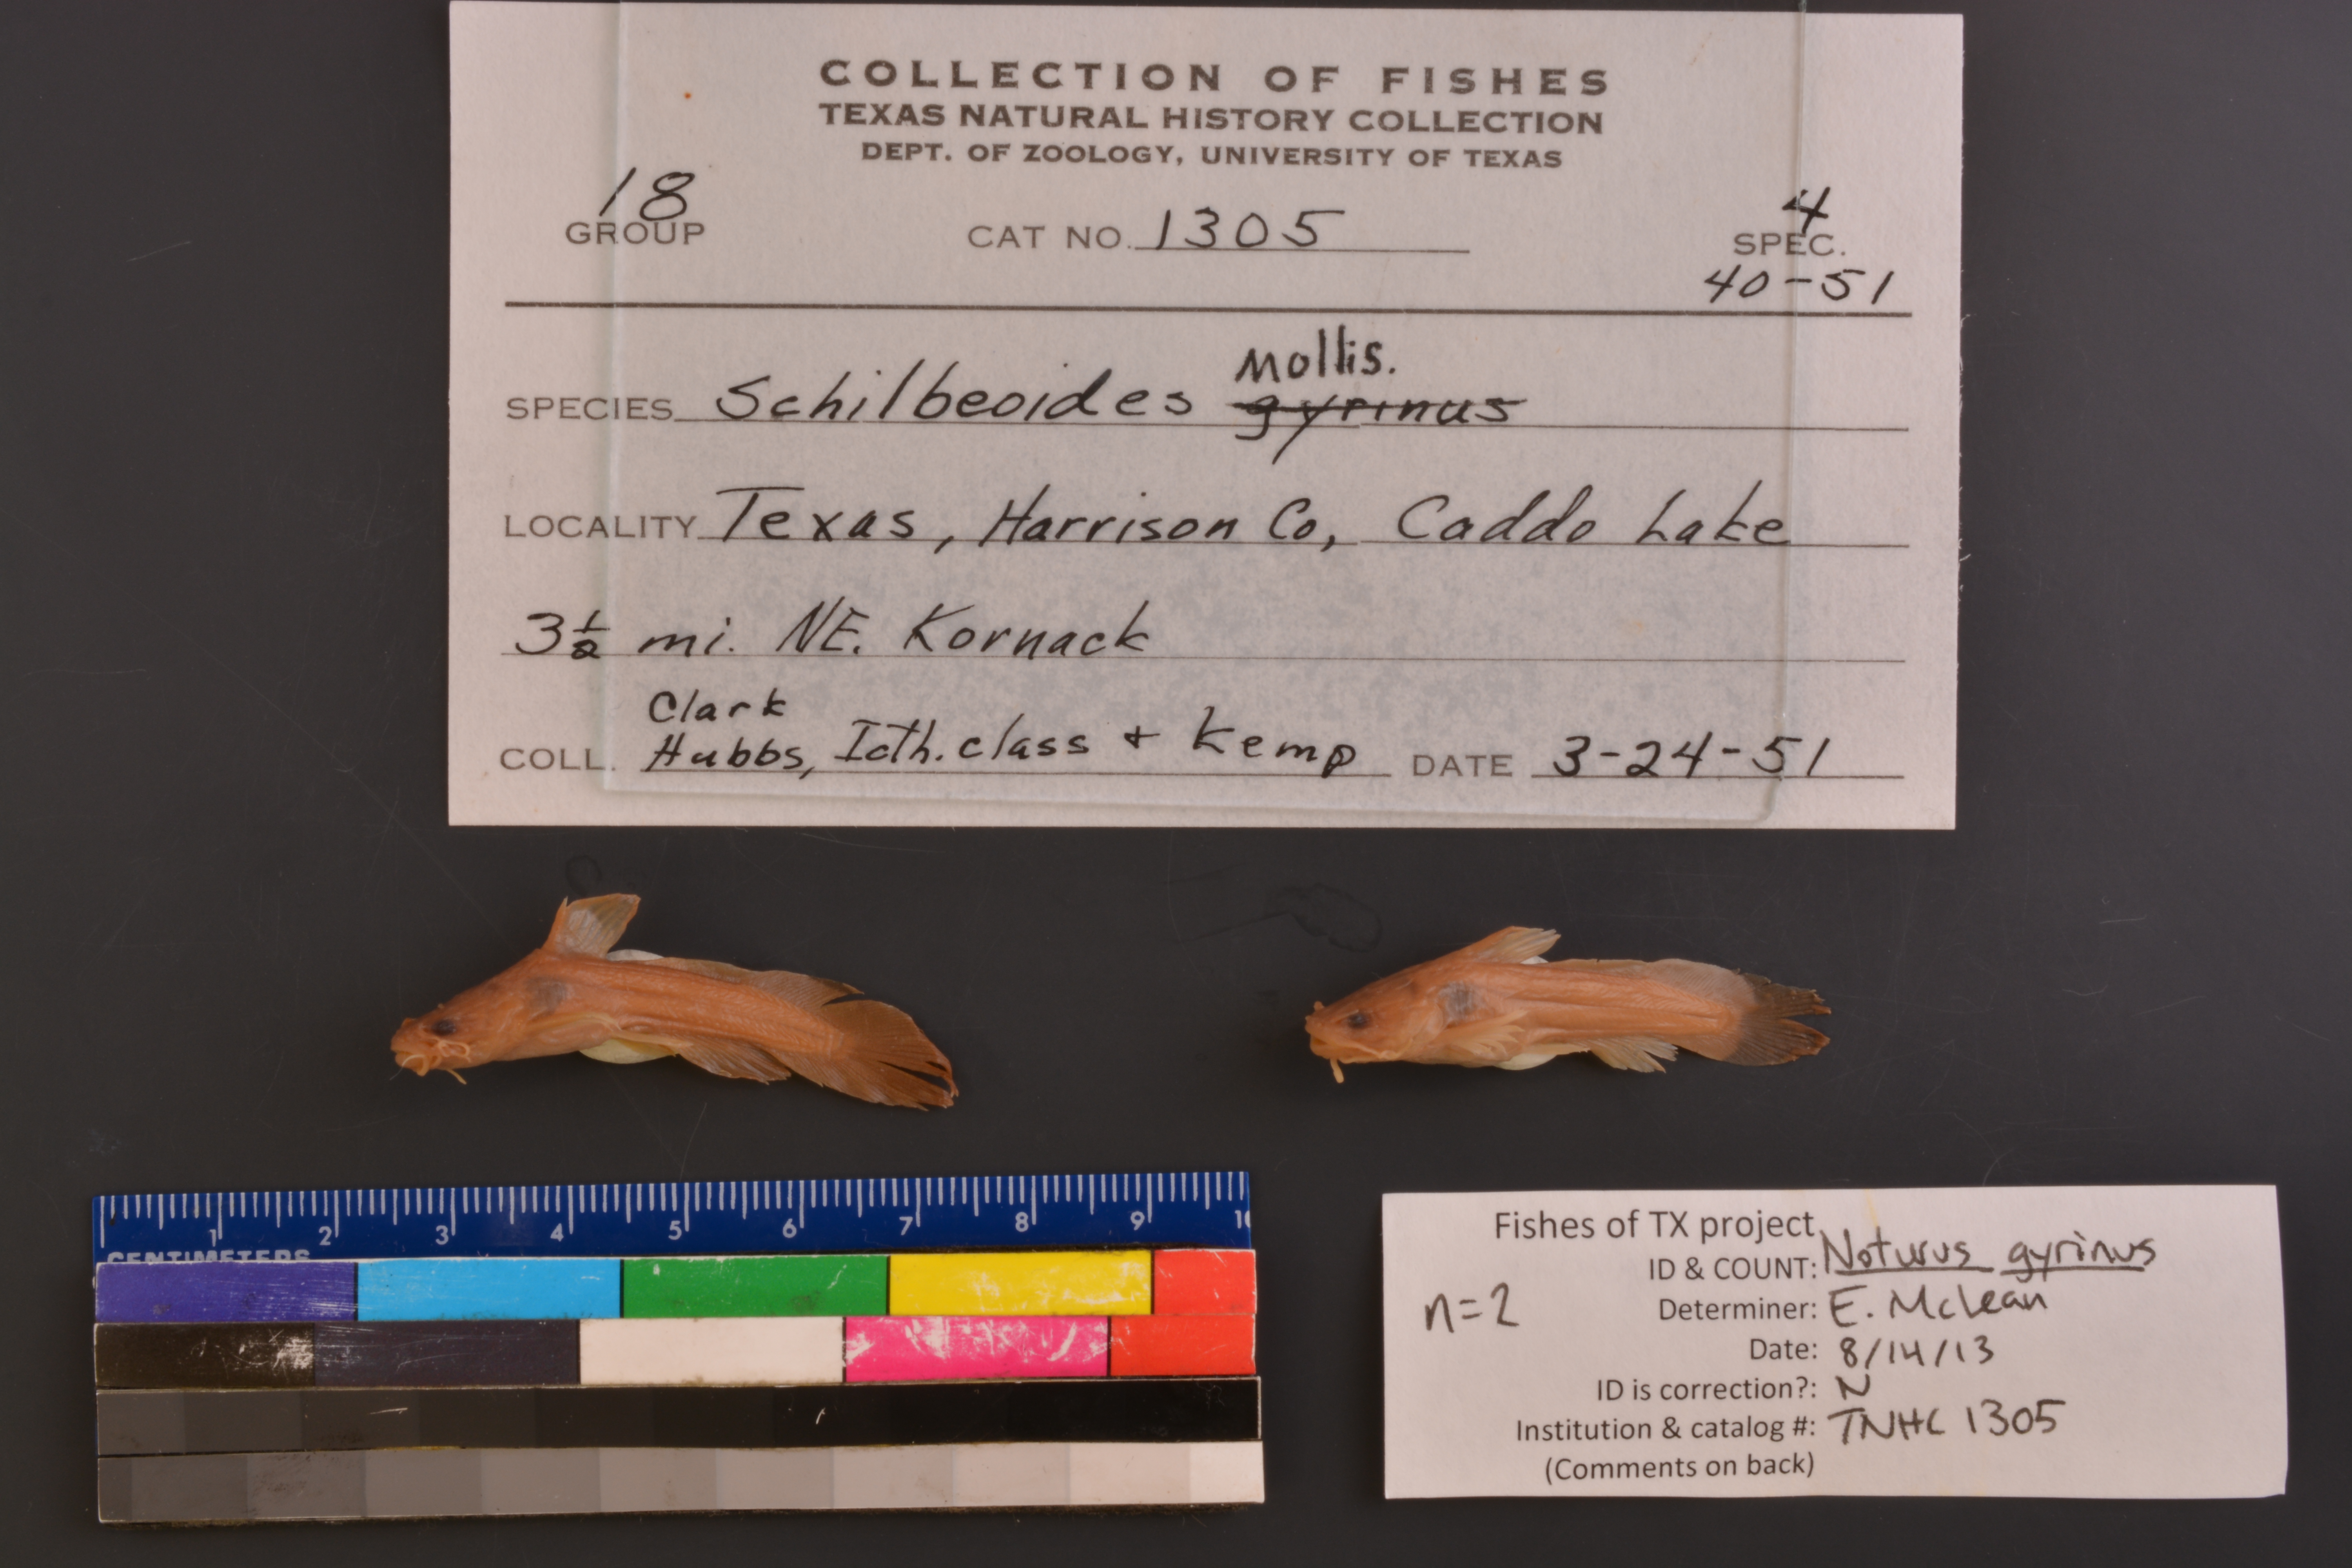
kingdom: Animalia
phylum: Chordata
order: Siluriformes
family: Ictaluridae
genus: Noturus
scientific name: Noturus gyrinus
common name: Tadpole madtom
